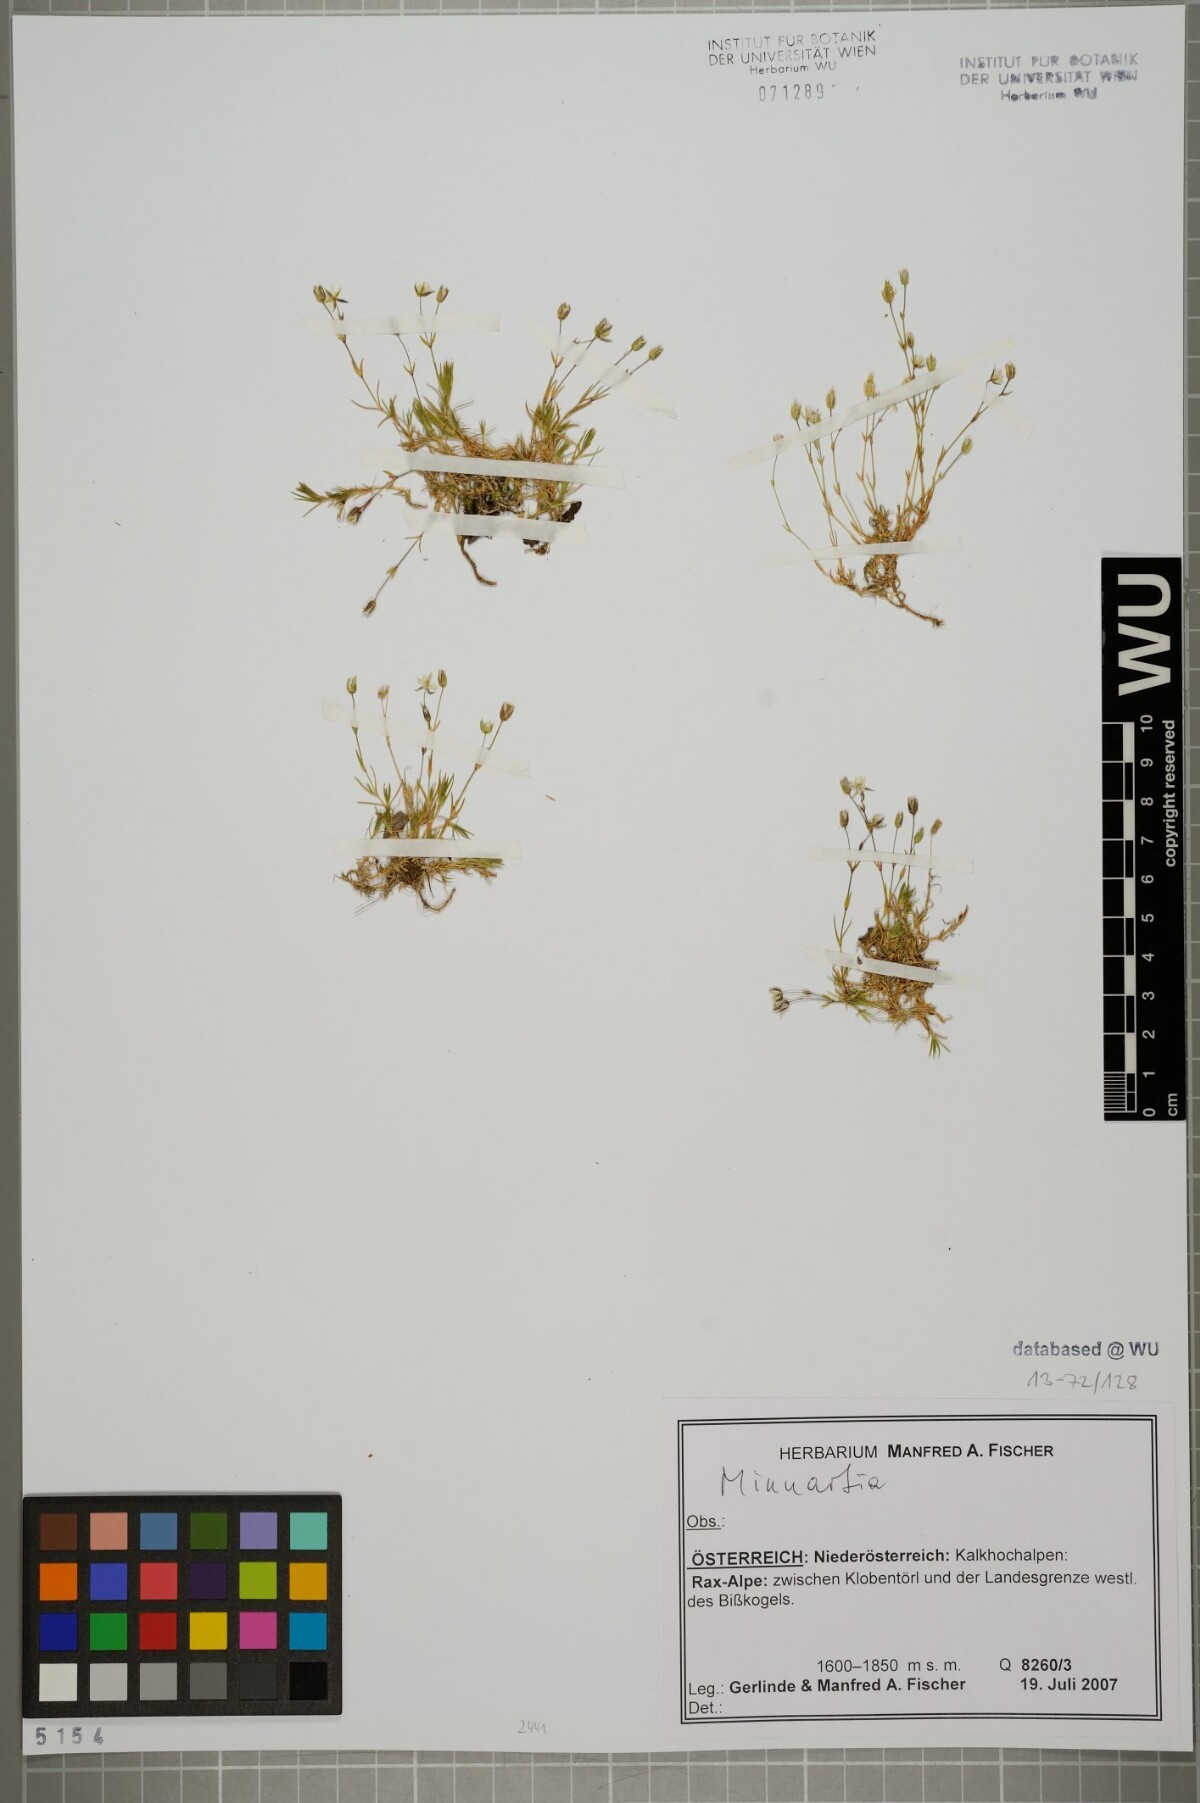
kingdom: Plantae
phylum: Tracheophyta
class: Magnoliopsida
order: Caryophyllales
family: Caryophyllaceae
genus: Sabulina
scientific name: Sabulina verna
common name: Spring sandwort
